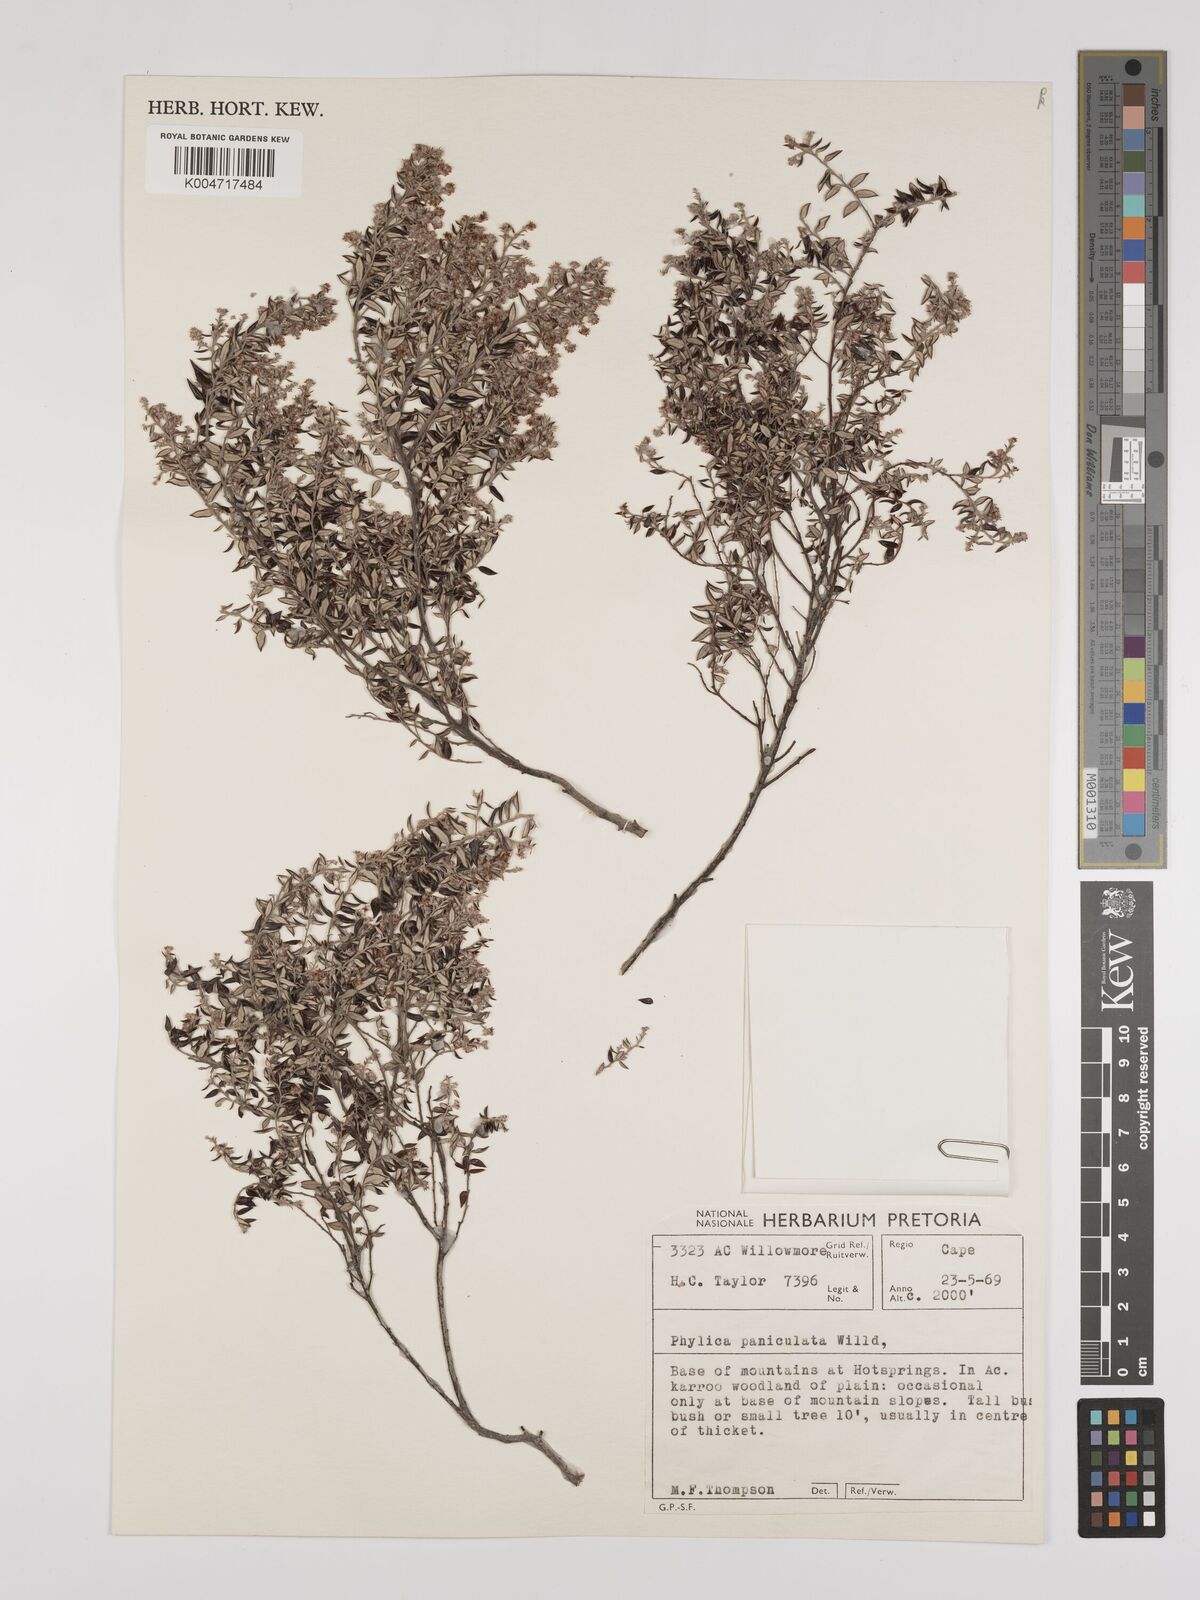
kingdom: Plantae
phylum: Tracheophyta
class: Magnoliopsida
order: Rosales
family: Rhamnaceae
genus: Phylica
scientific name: Phylica paniculata
